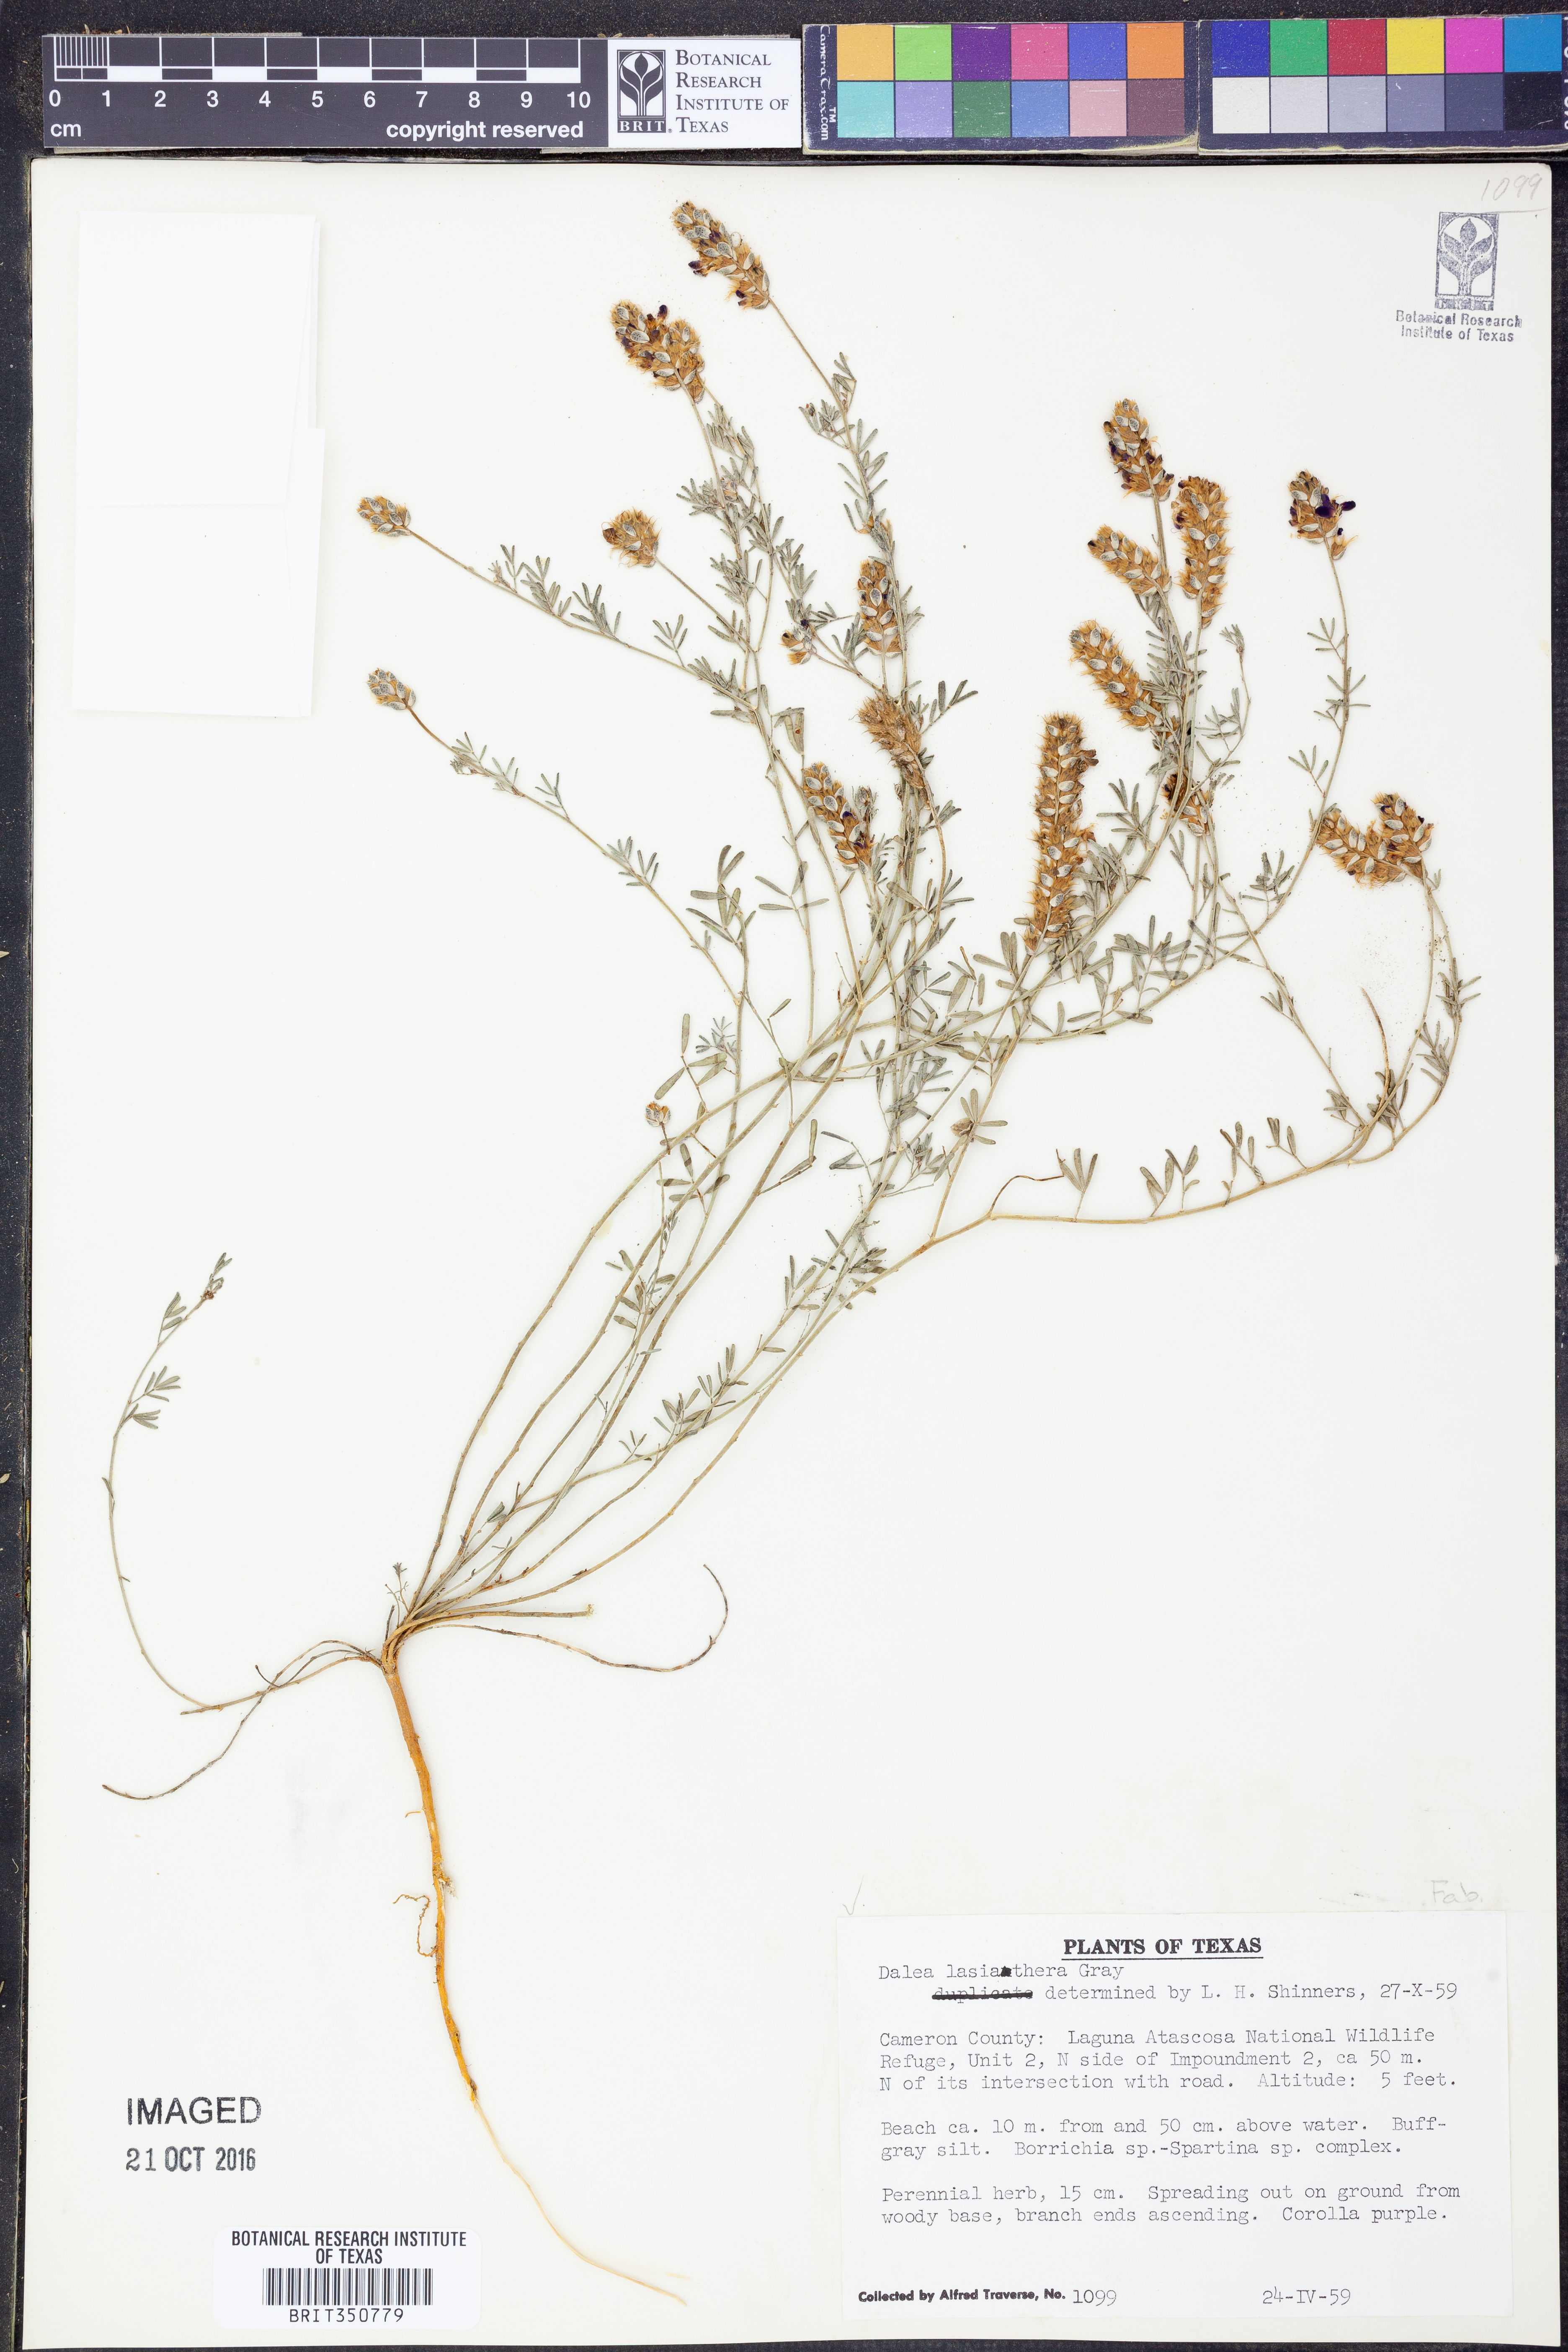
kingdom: Plantae
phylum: Tracheophyta
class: Magnoliopsida
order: Fabales
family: Fabaceae
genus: Dalea
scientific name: Dalea lasiathera
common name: Purple prairie-clover
